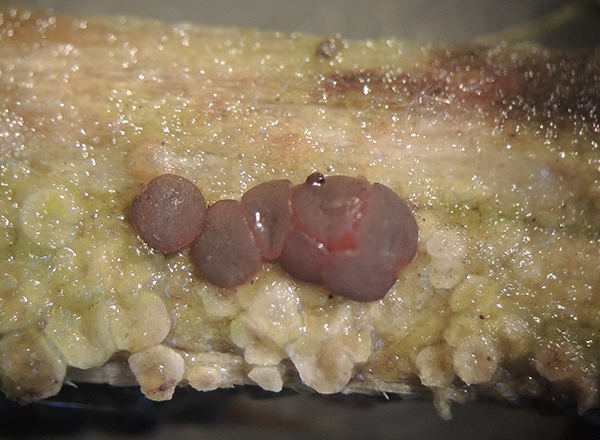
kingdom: Fungi
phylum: Ascomycota
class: Leotiomycetes
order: Helotiales
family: Gelatinodiscaceae
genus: Ascocoryne
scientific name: Ascocoryne lilacina
